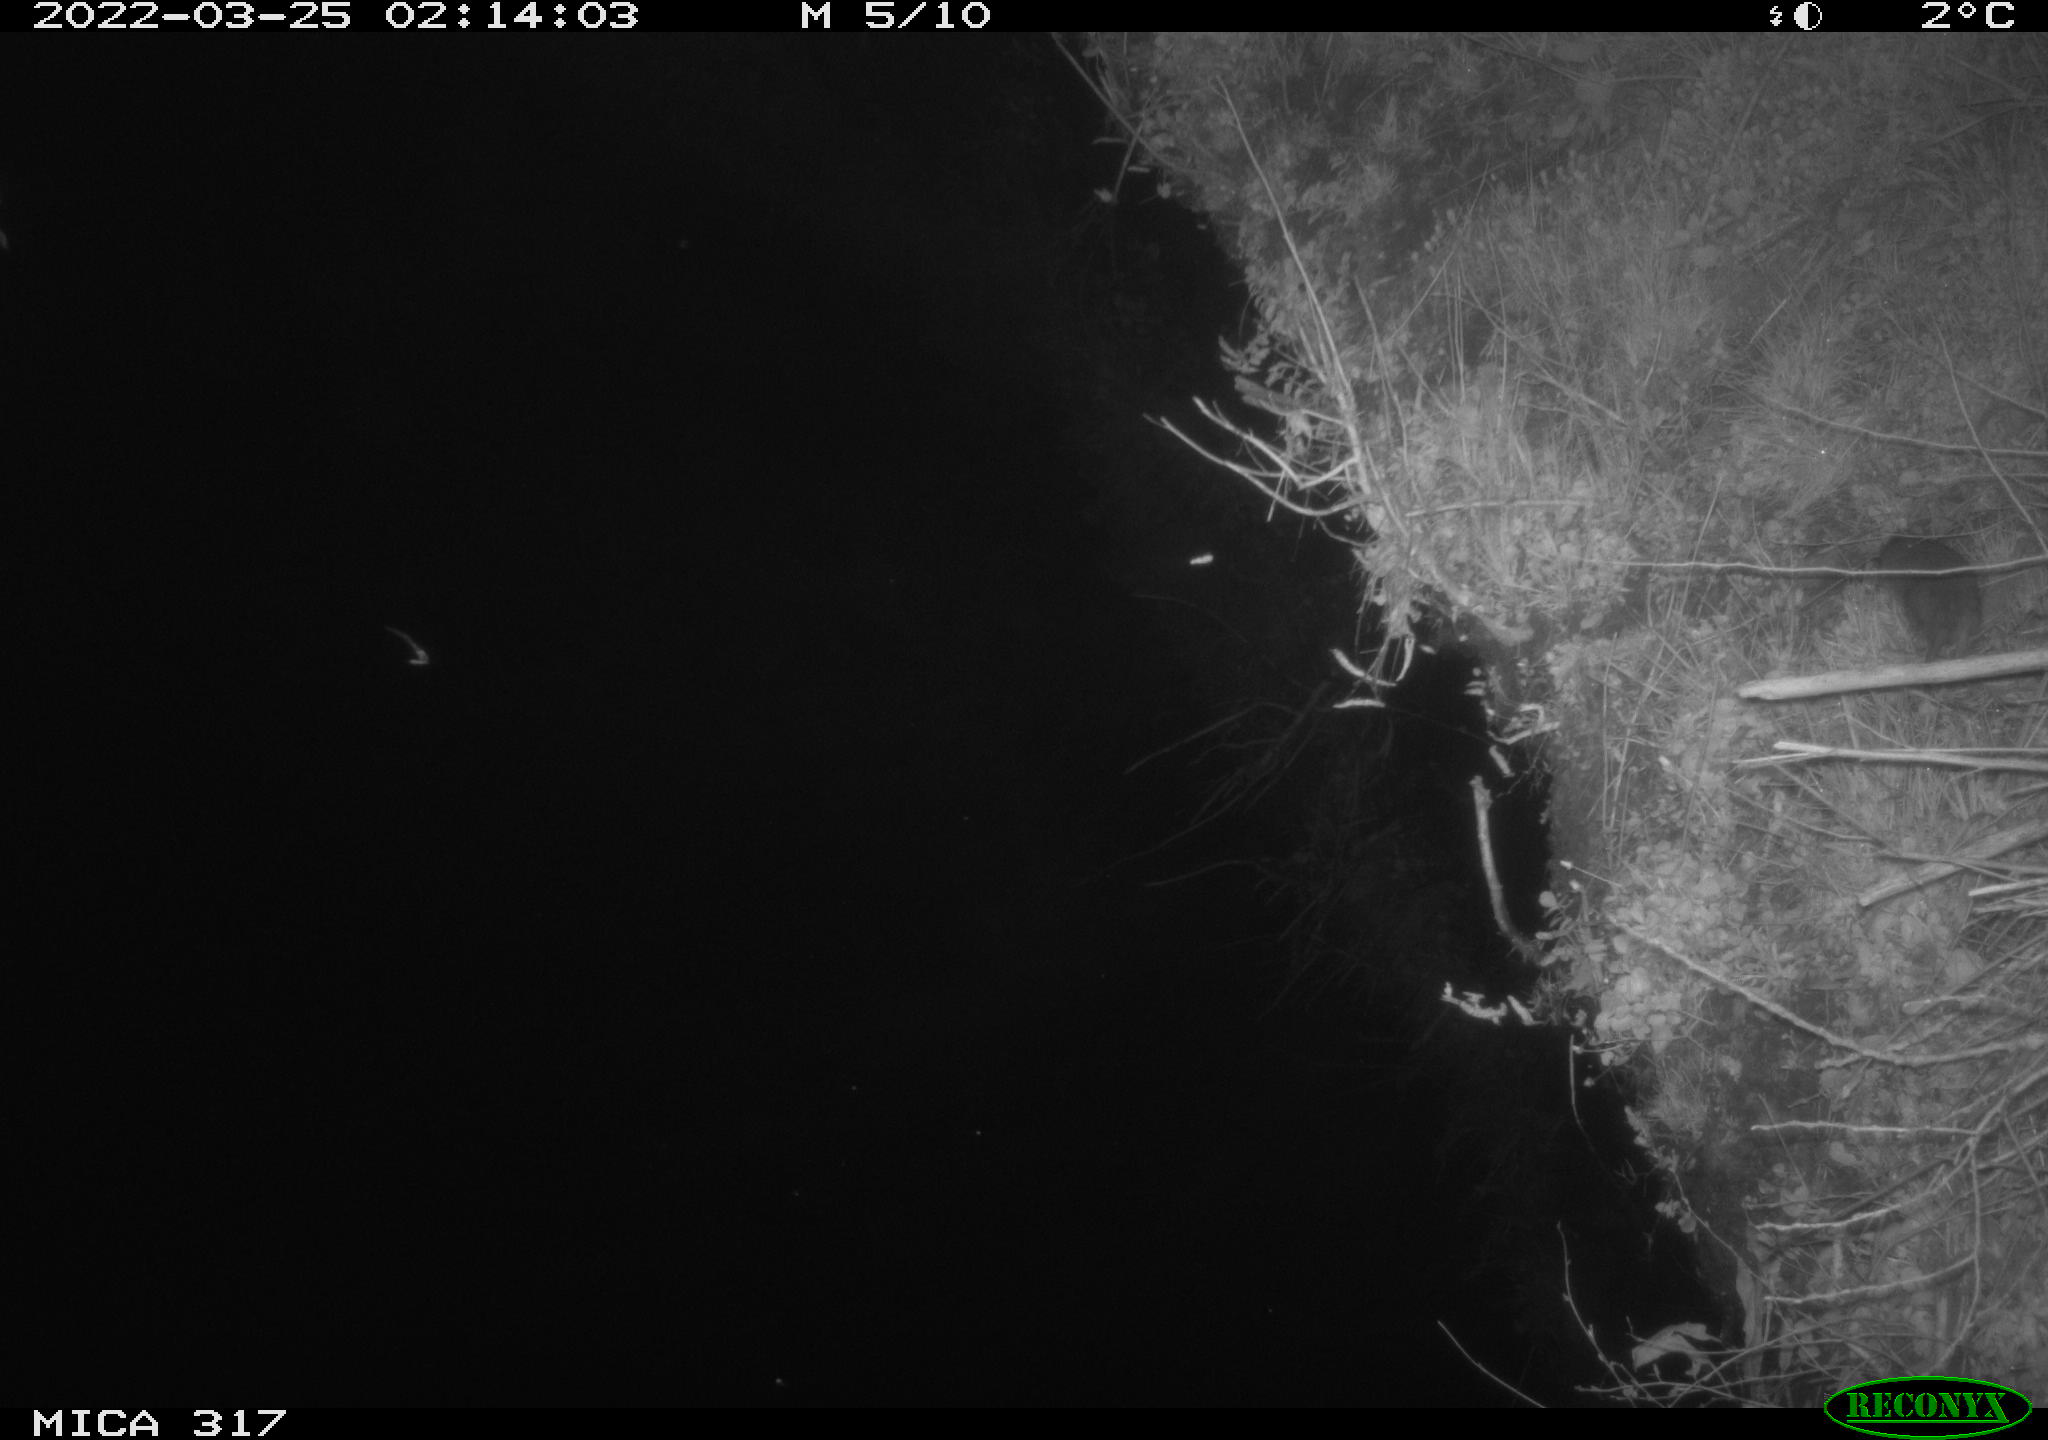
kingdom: Animalia
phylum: Chordata
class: Mammalia
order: Rodentia
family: Muridae
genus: Rattus
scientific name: Rattus norvegicus
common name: Brown rat
